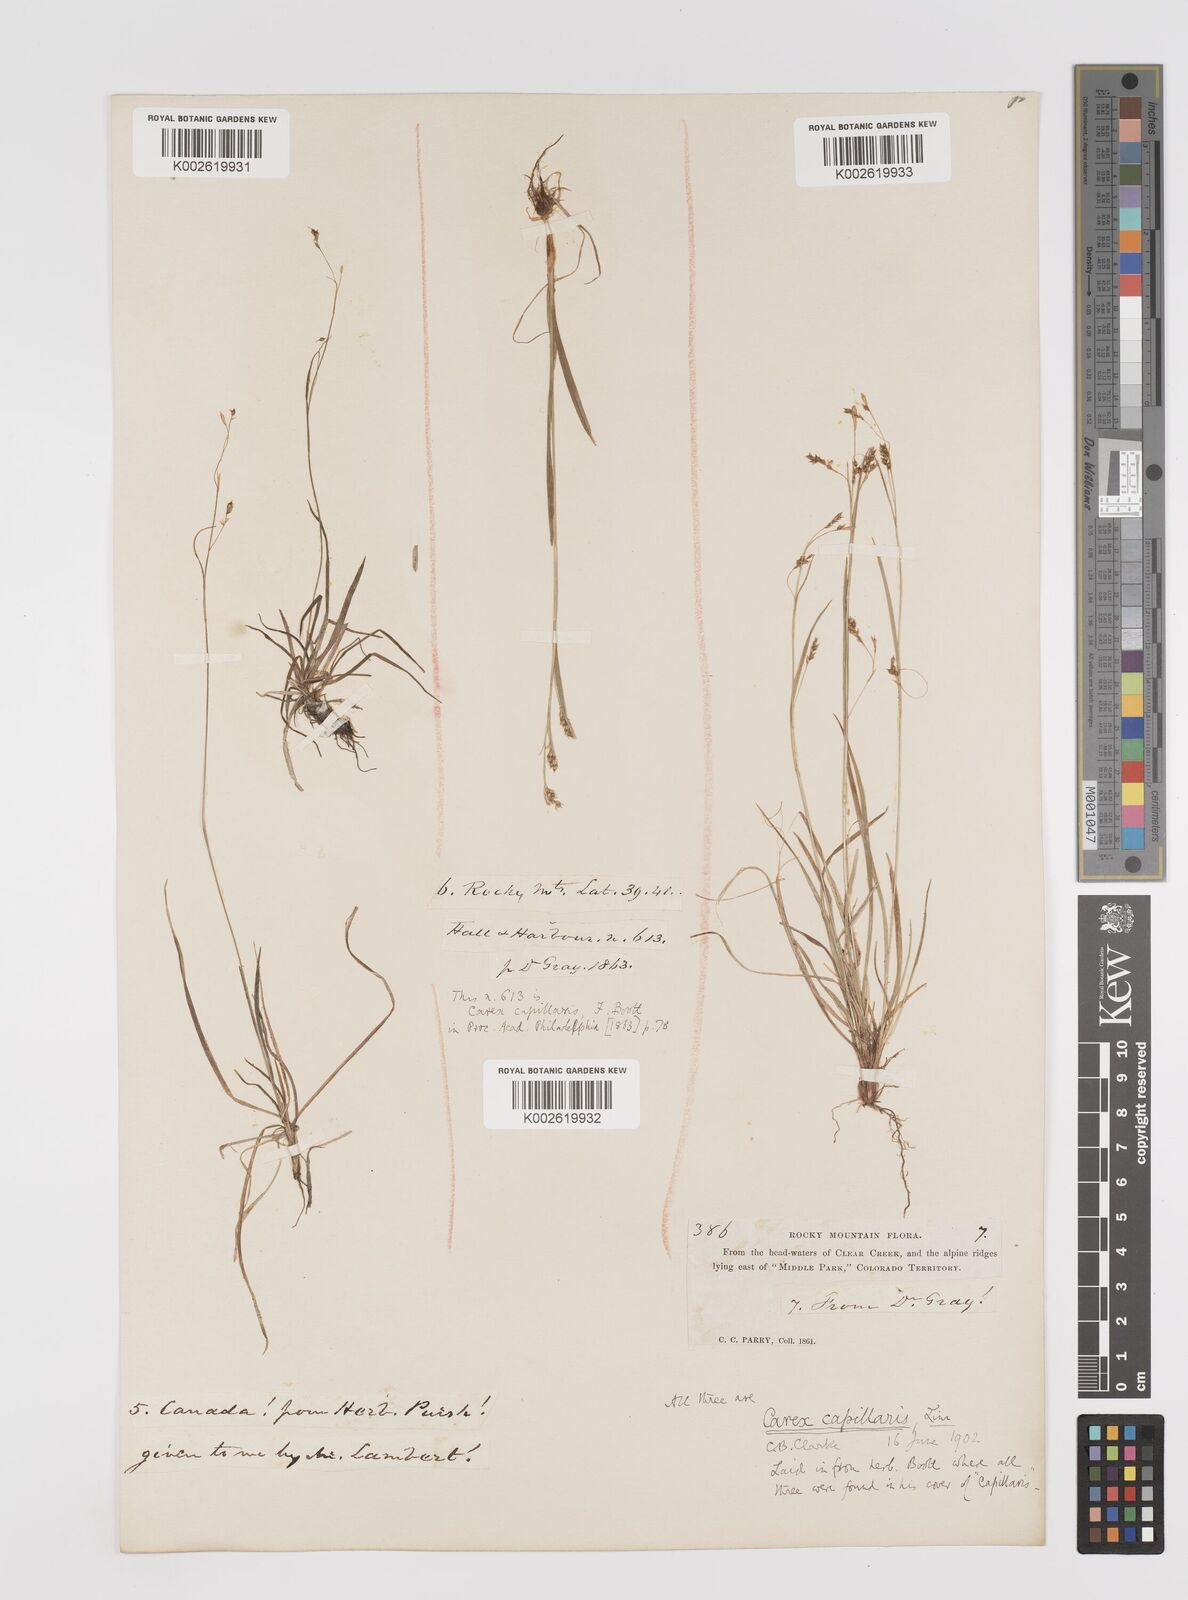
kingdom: Plantae
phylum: Tracheophyta
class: Liliopsida
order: Poales
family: Cyperaceae
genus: Carex
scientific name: Carex capillaris
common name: Hair sedge
